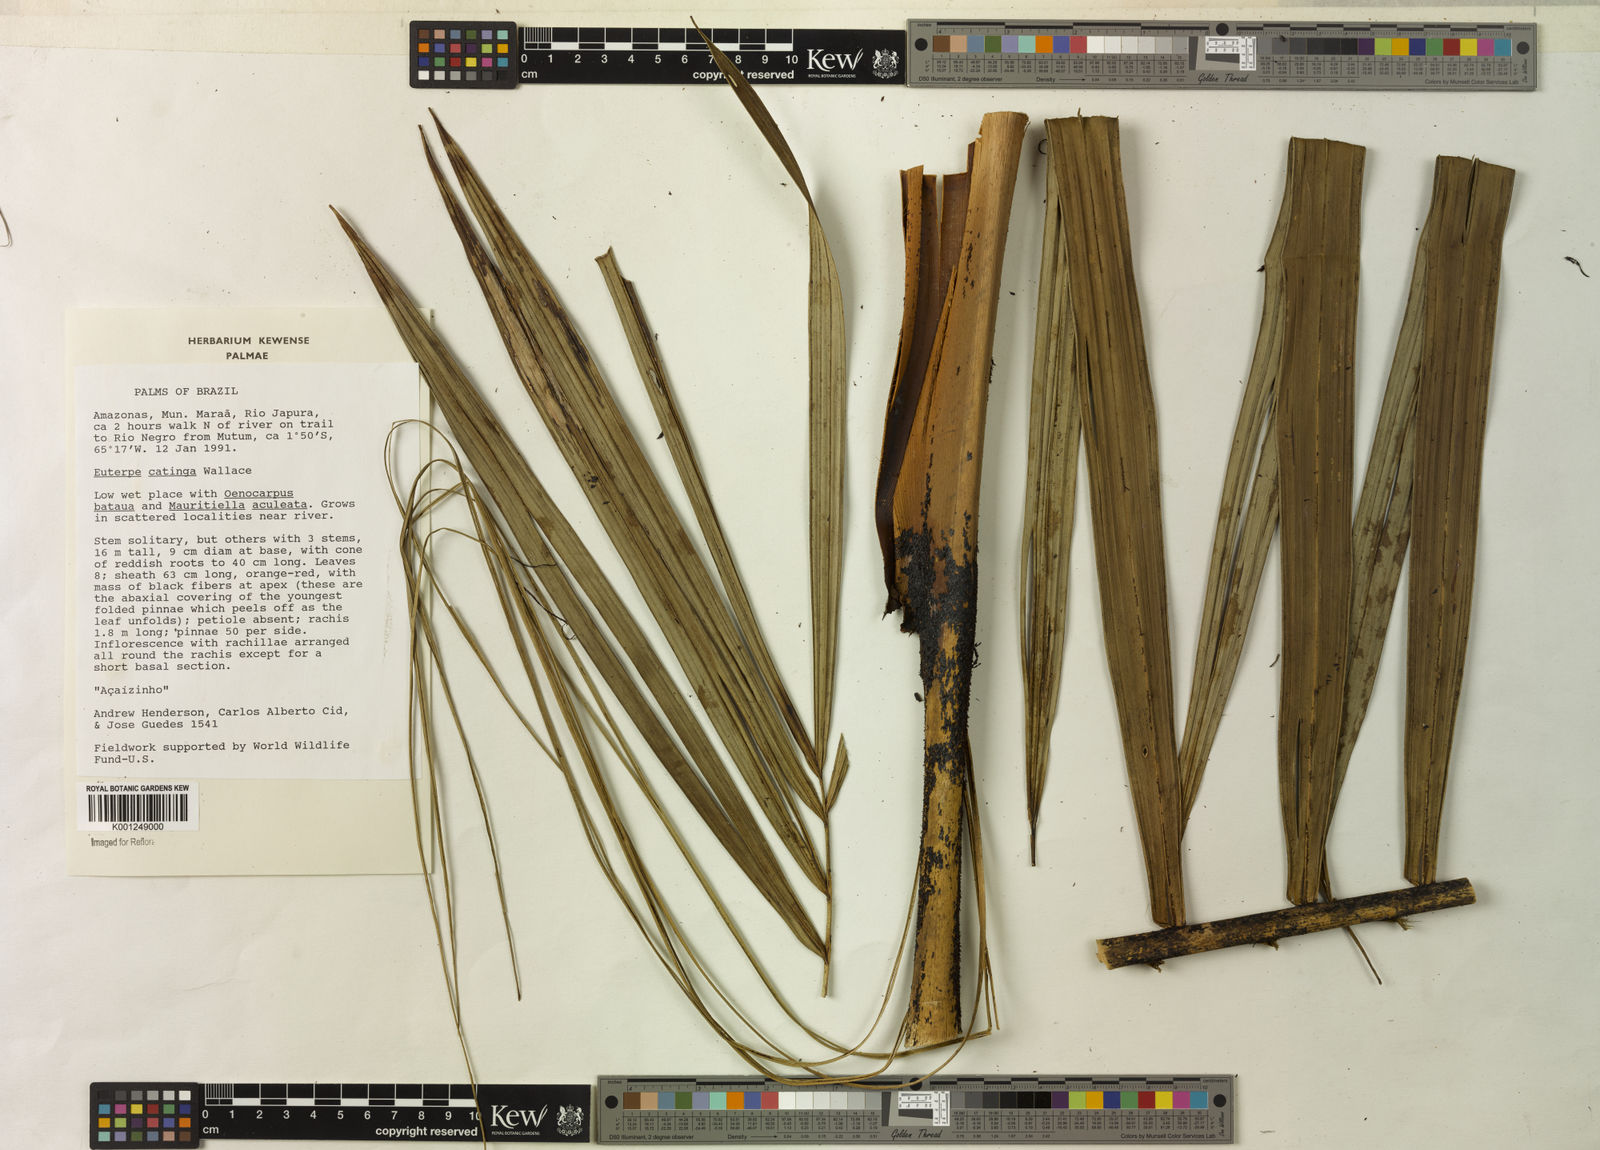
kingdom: Plantae
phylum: Tracheophyta
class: Liliopsida
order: Arecales
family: Arecaceae
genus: Euterpe
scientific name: Euterpe catinga
